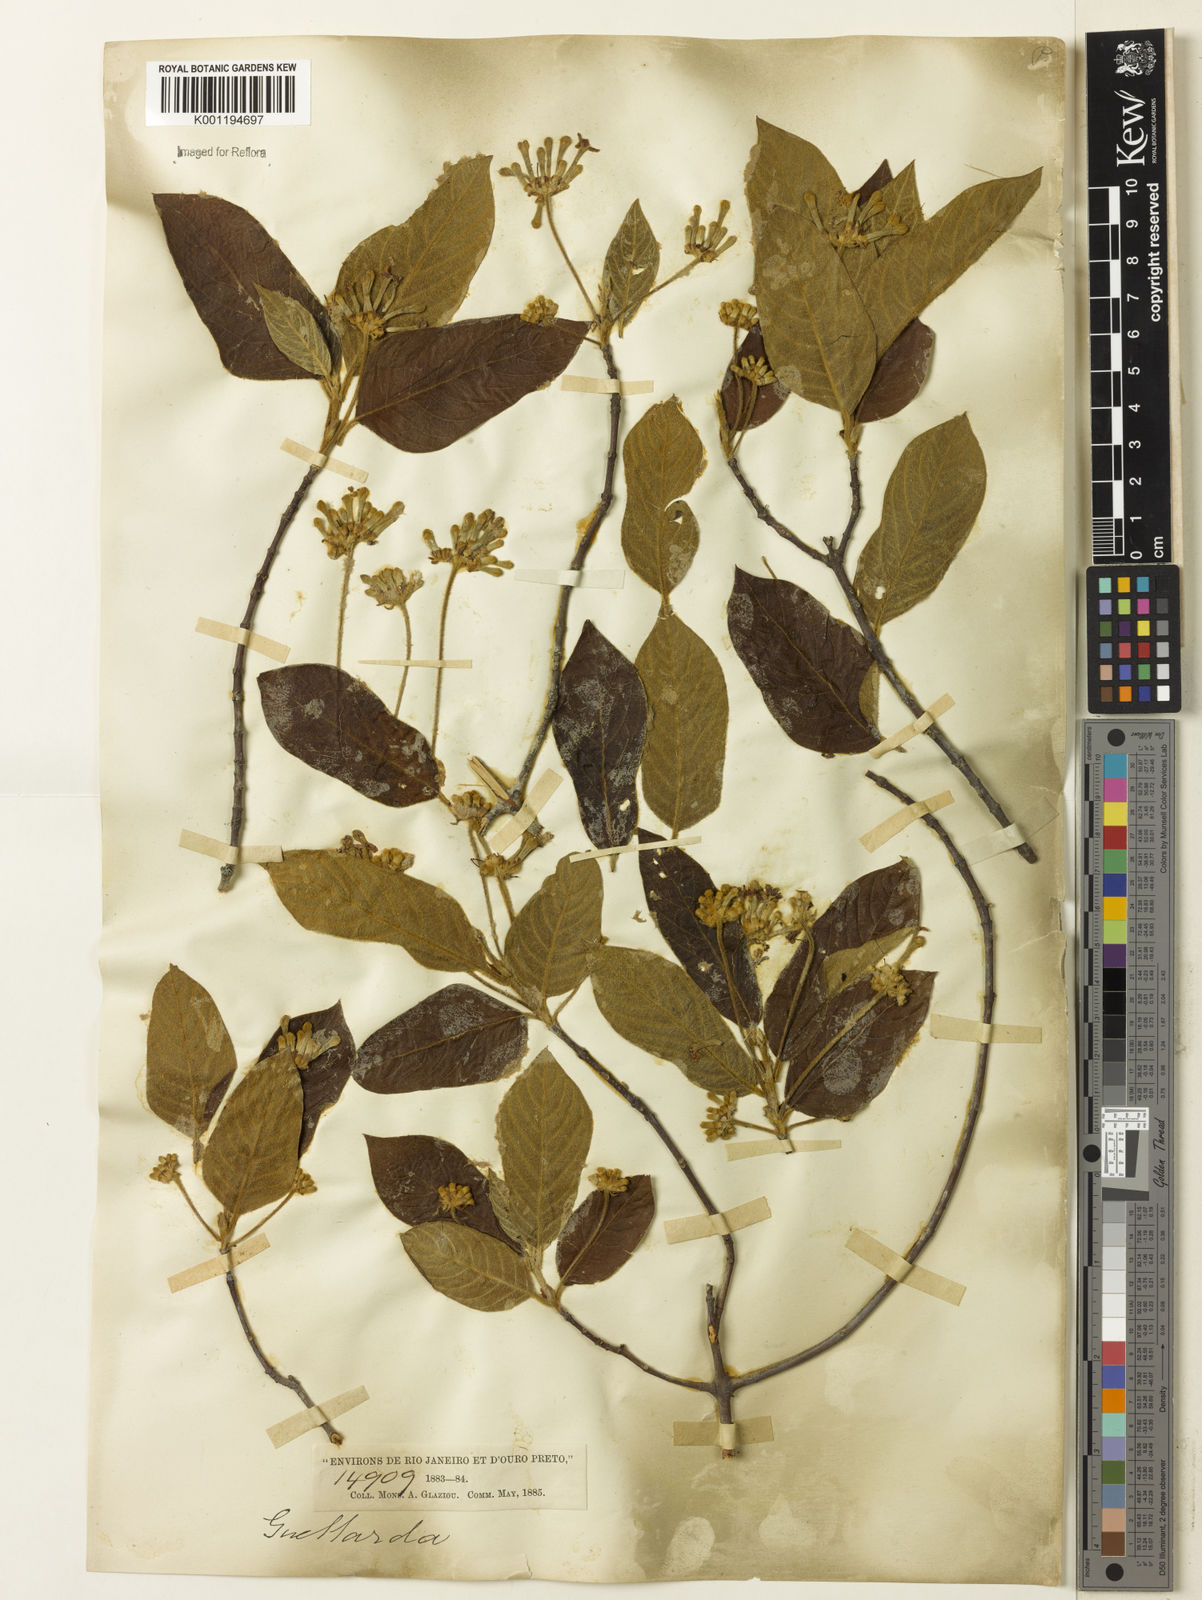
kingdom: Plantae
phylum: Tracheophyta
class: Magnoliopsida
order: Gentianales
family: Rubiaceae
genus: Guettarda
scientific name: Guettarda uruguensis
